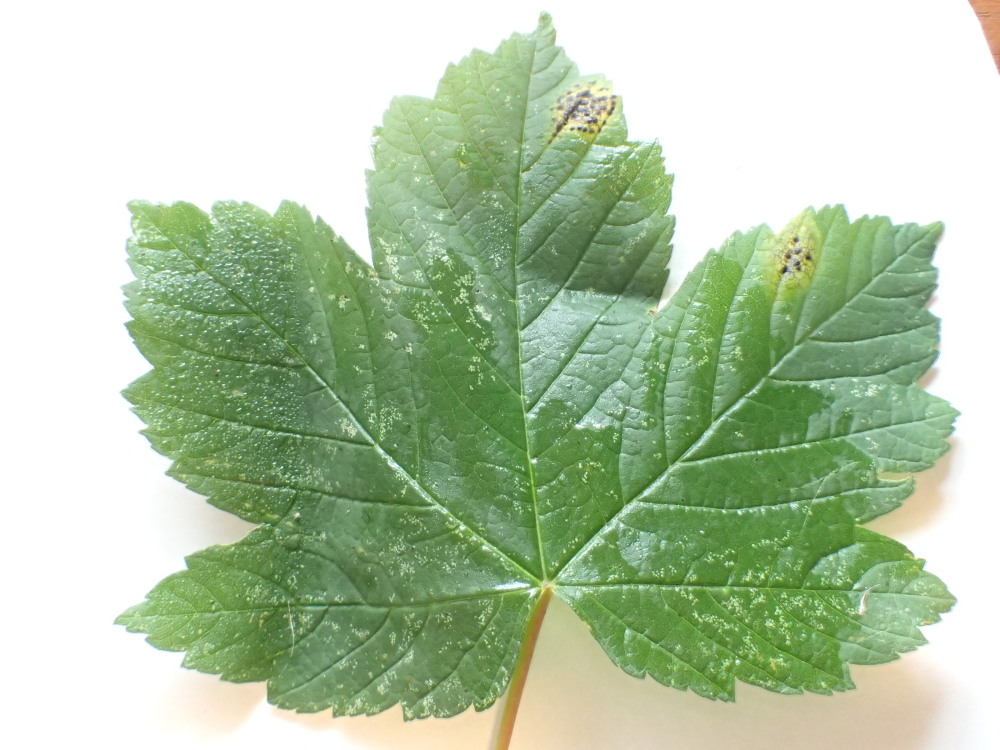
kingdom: Fungi
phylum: Ascomycota
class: Leotiomycetes
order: Rhytismatales
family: Rhytismataceae
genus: Rhytisma
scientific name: Rhytisma acerinum
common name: ahorn-rynkeplet
